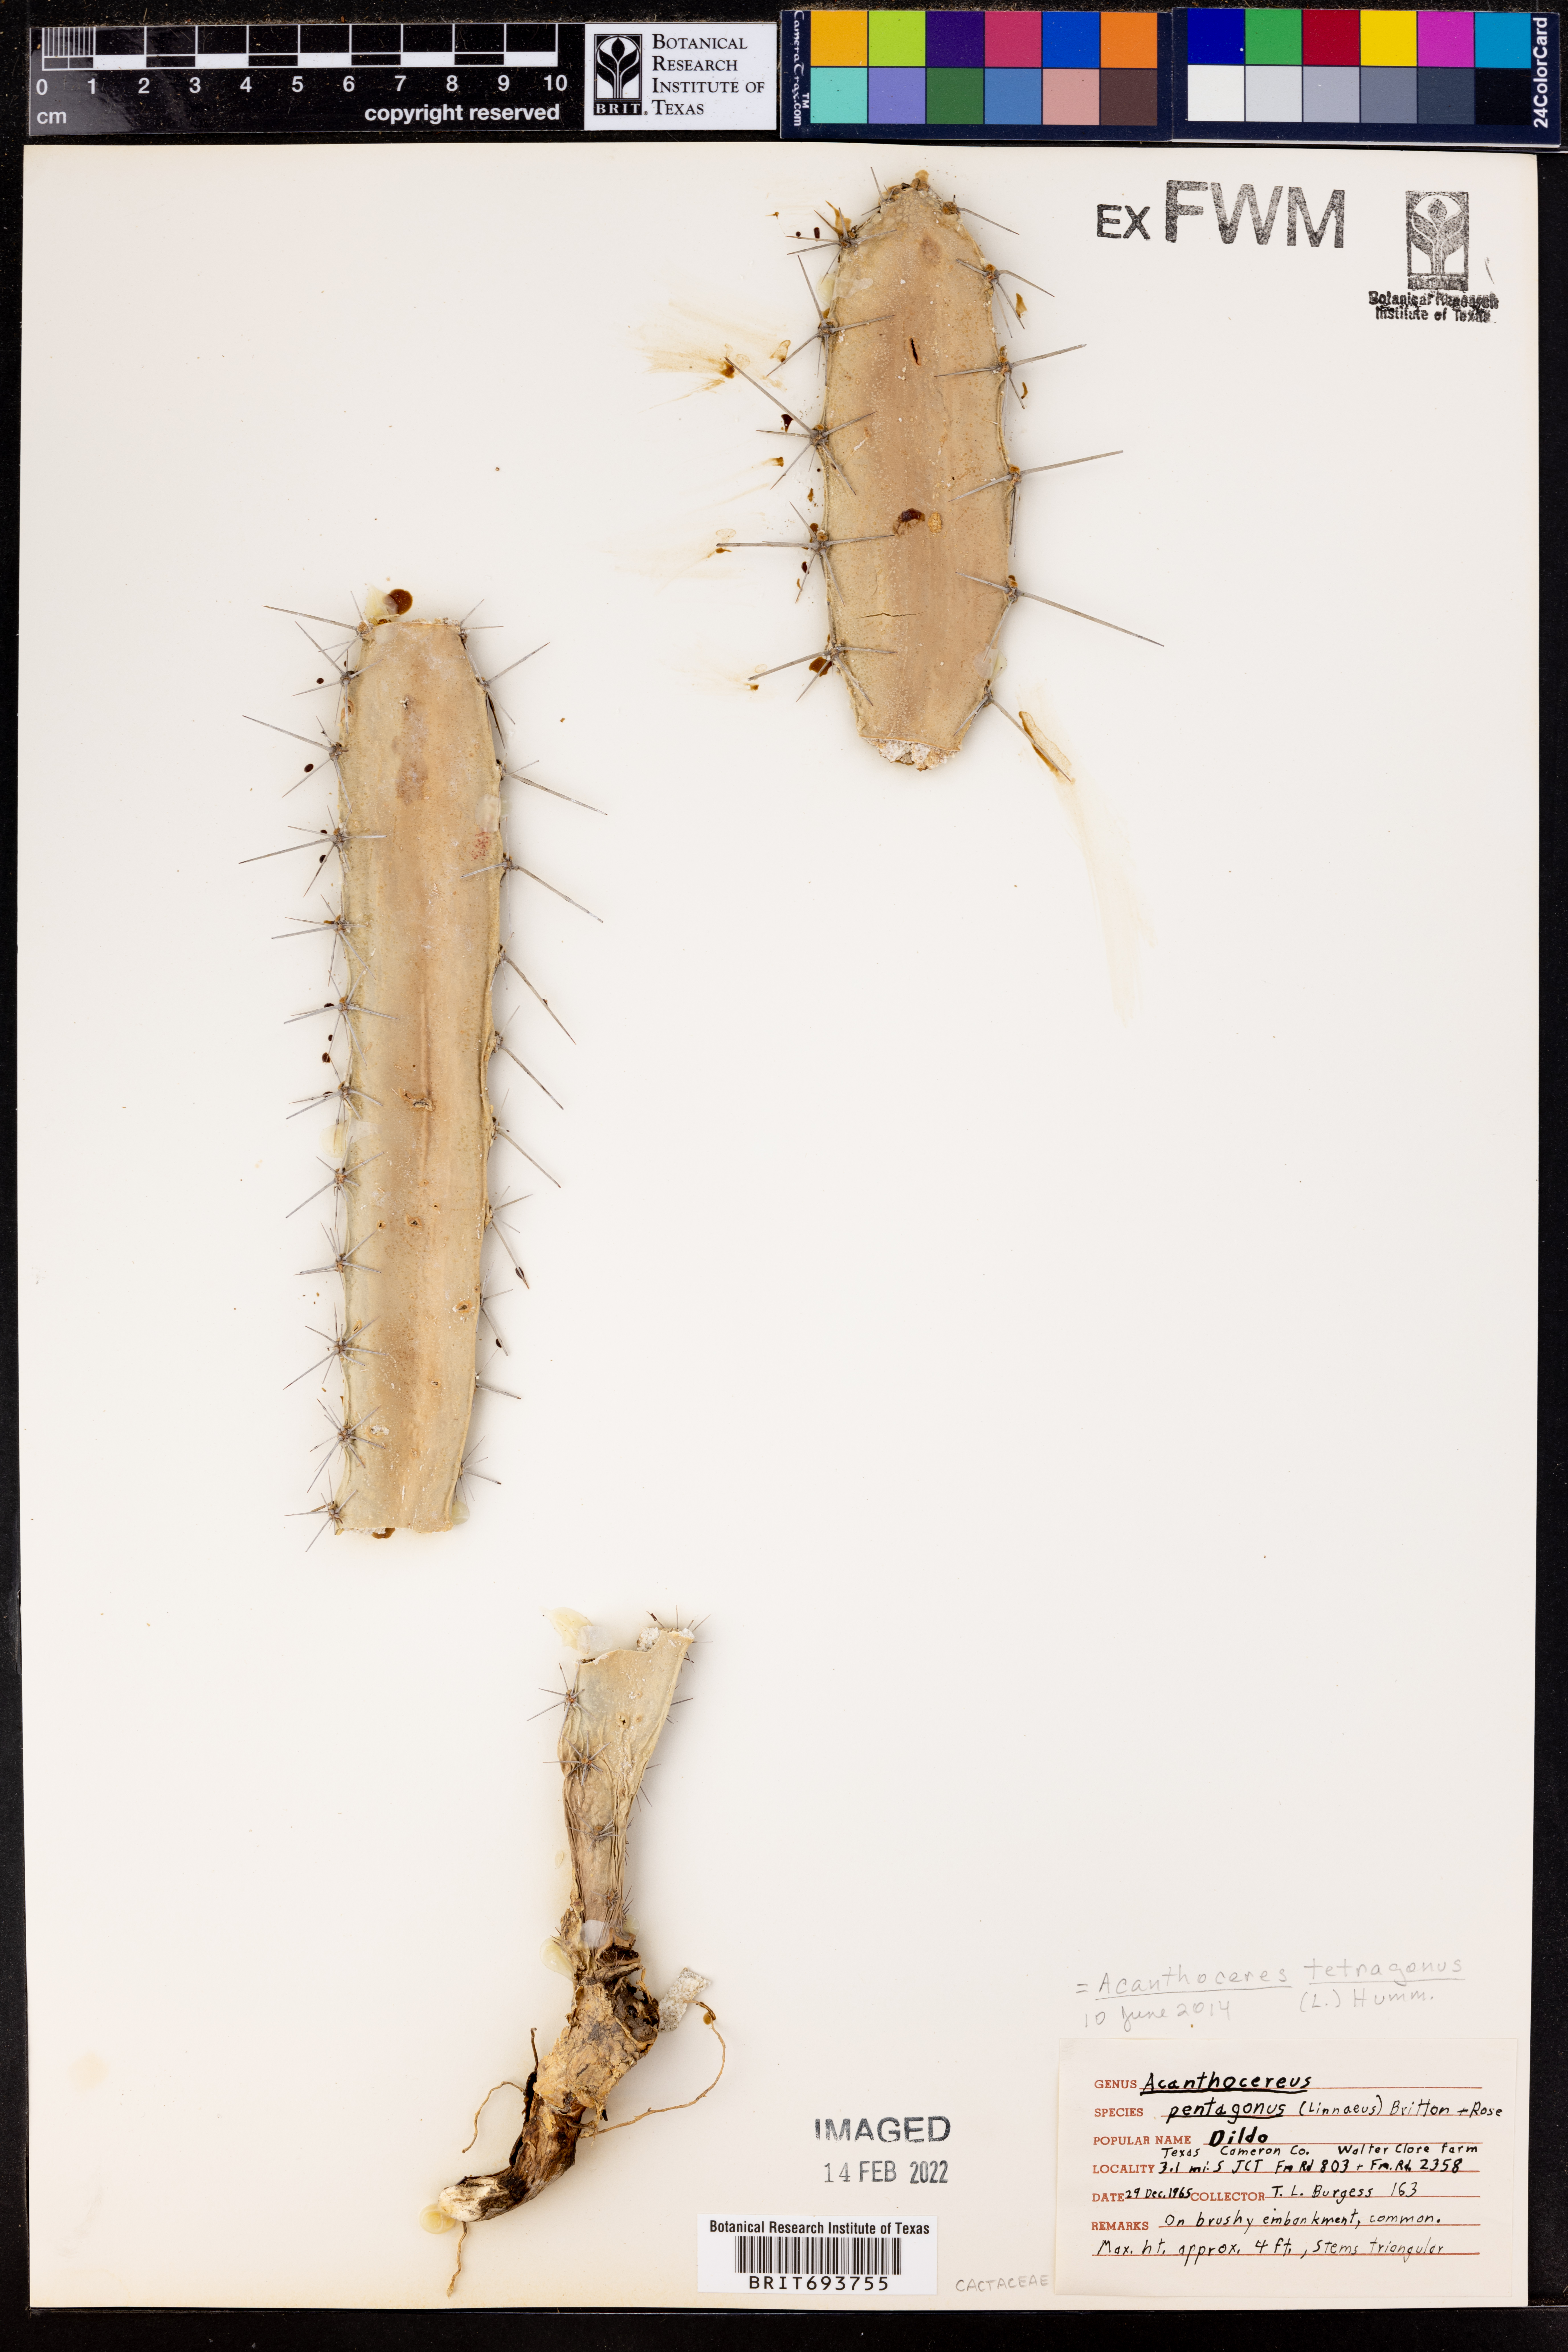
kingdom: Plantae
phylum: Tracheophyta
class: Magnoliopsida
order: Caryophyllales
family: Cactaceae
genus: Acanthocereus
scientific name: Acanthocereus tetragonus
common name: Triangle cactus
